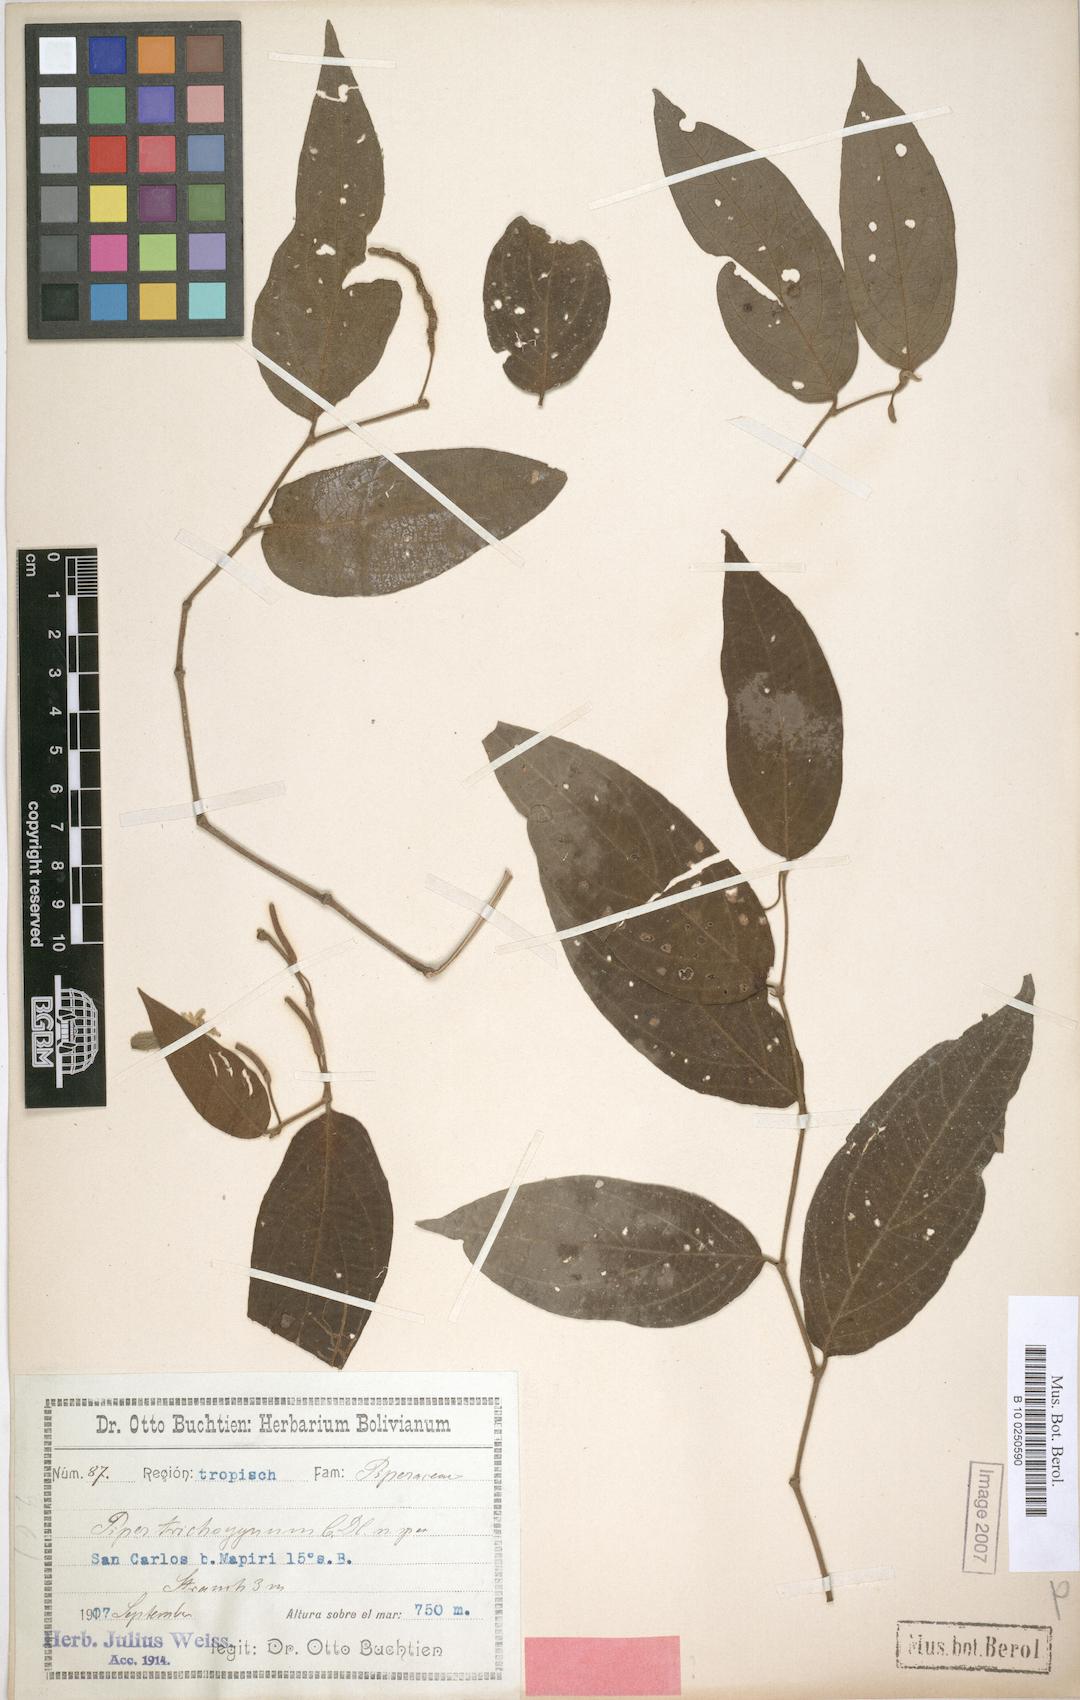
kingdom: Plantae
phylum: Tracheophyta
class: Magnoliopsida
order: Piperales
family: Piperaceae
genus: Piper
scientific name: Piper trichogynum
